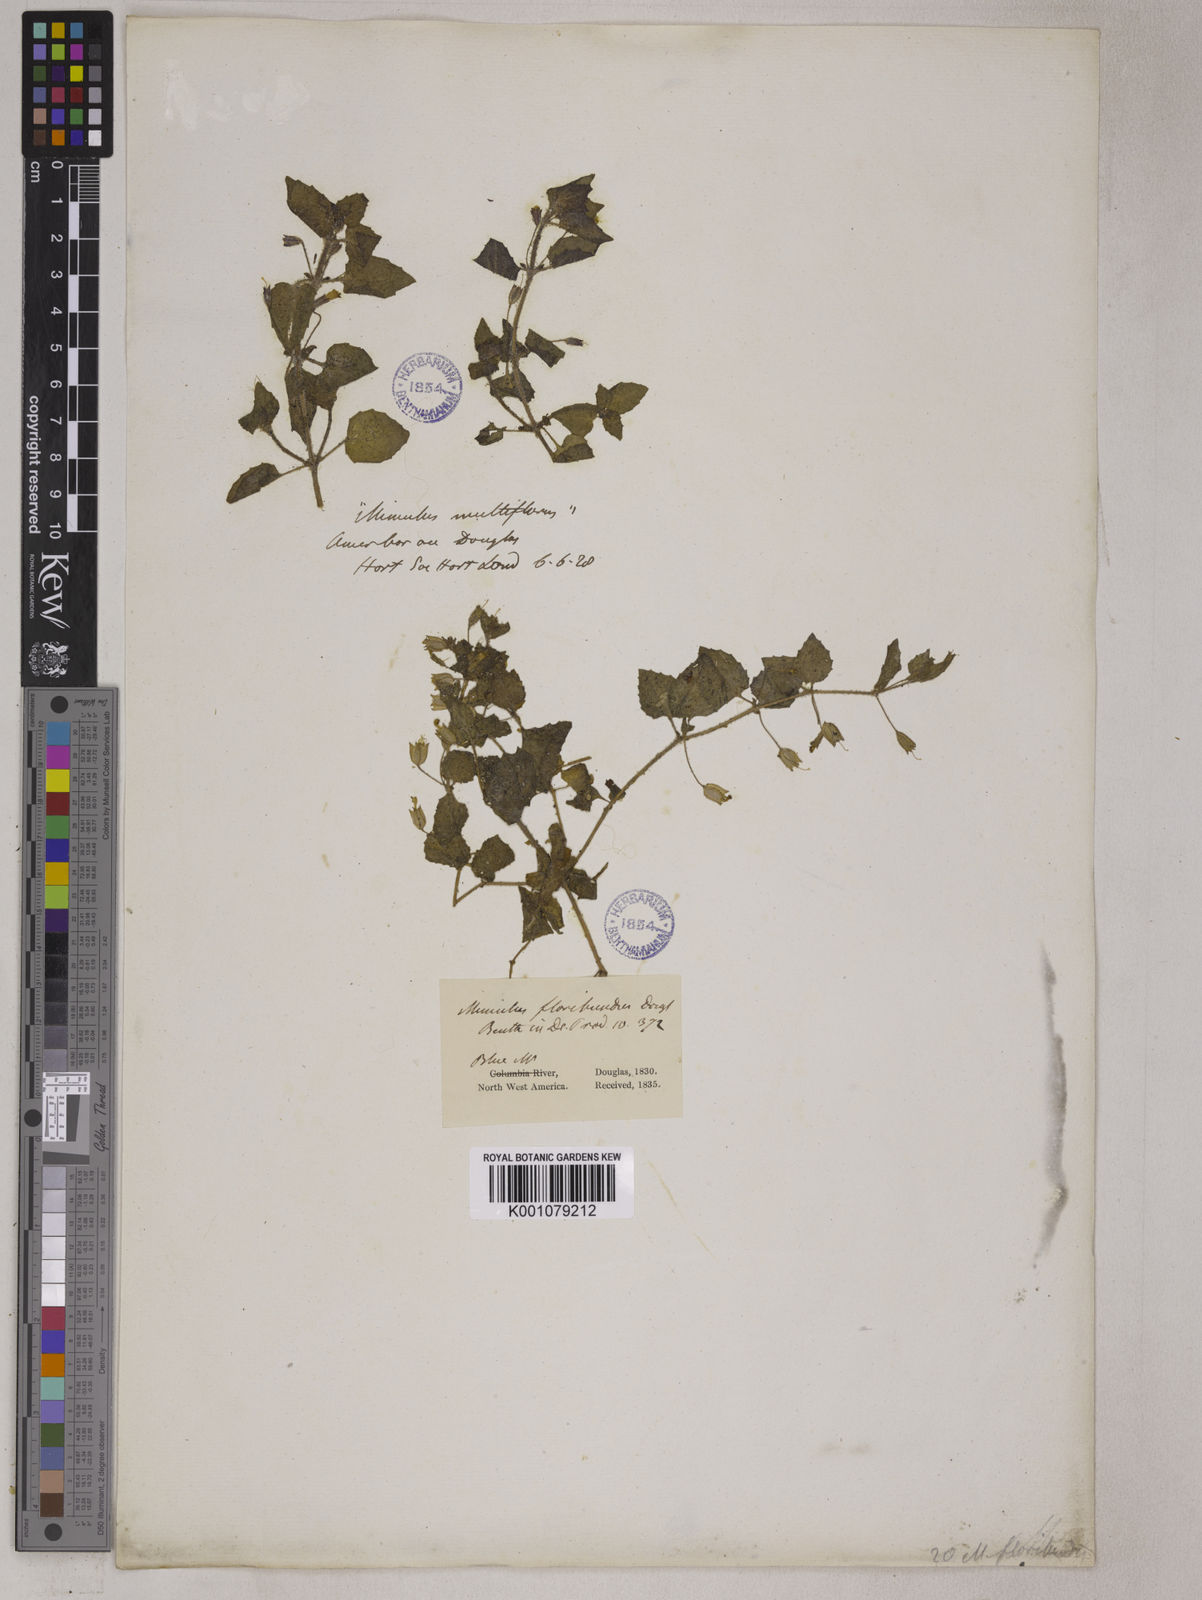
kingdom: Plantae
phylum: Tracheophyta
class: Magnoliopsida
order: Lamiales
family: Phrymaceae
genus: Erythranthe
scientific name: Erythranthe floribunda
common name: Floriferous monkeyflower
